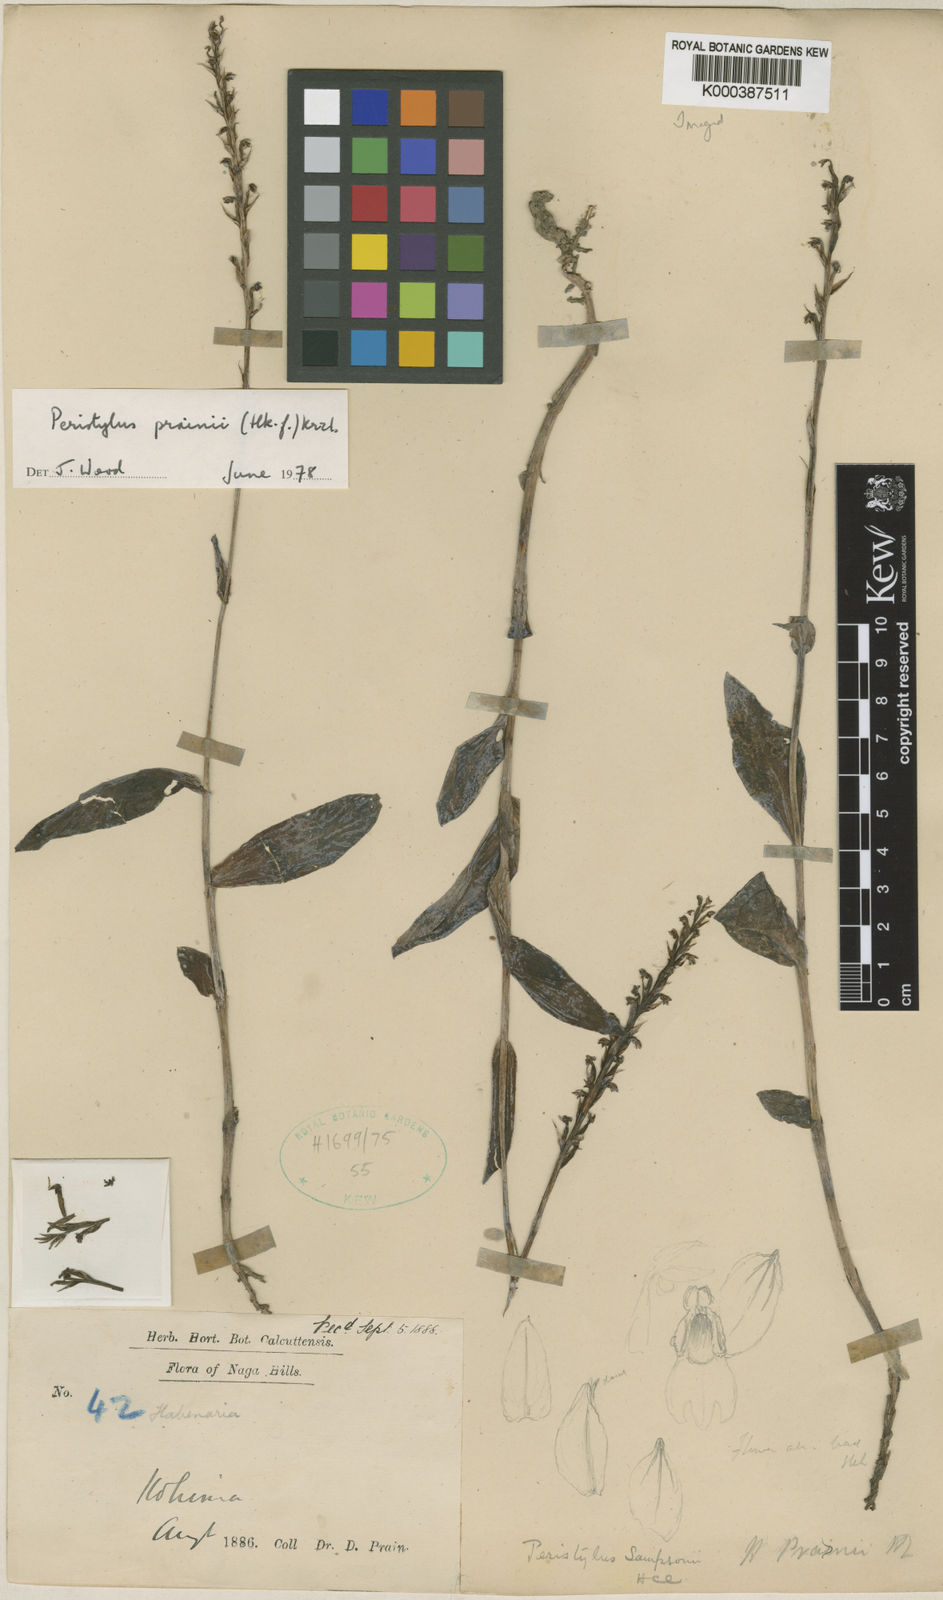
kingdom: Plantae
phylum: Tracheophyta
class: Liliopsida
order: Asparagales
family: Orchidaceae
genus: Peristylus
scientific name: Peristylus prainii
